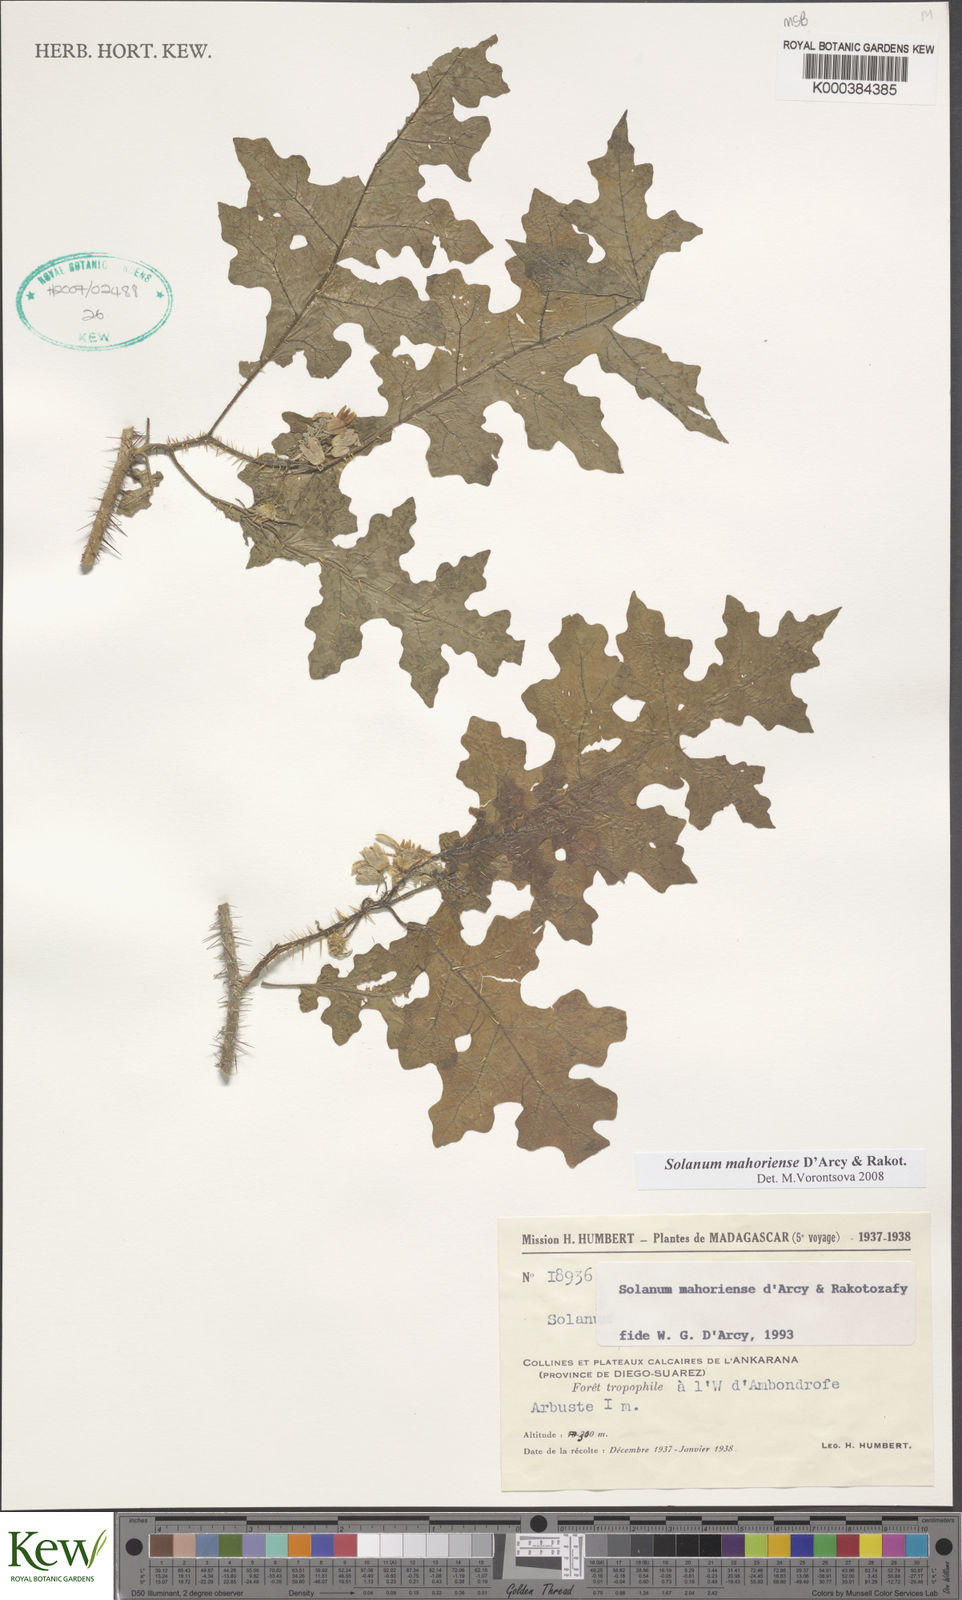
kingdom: Plantae
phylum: Tracheophyta
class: Magnoliopsida
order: Solanales
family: Solanaceae
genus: Solanum
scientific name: Solanum mahoriense
